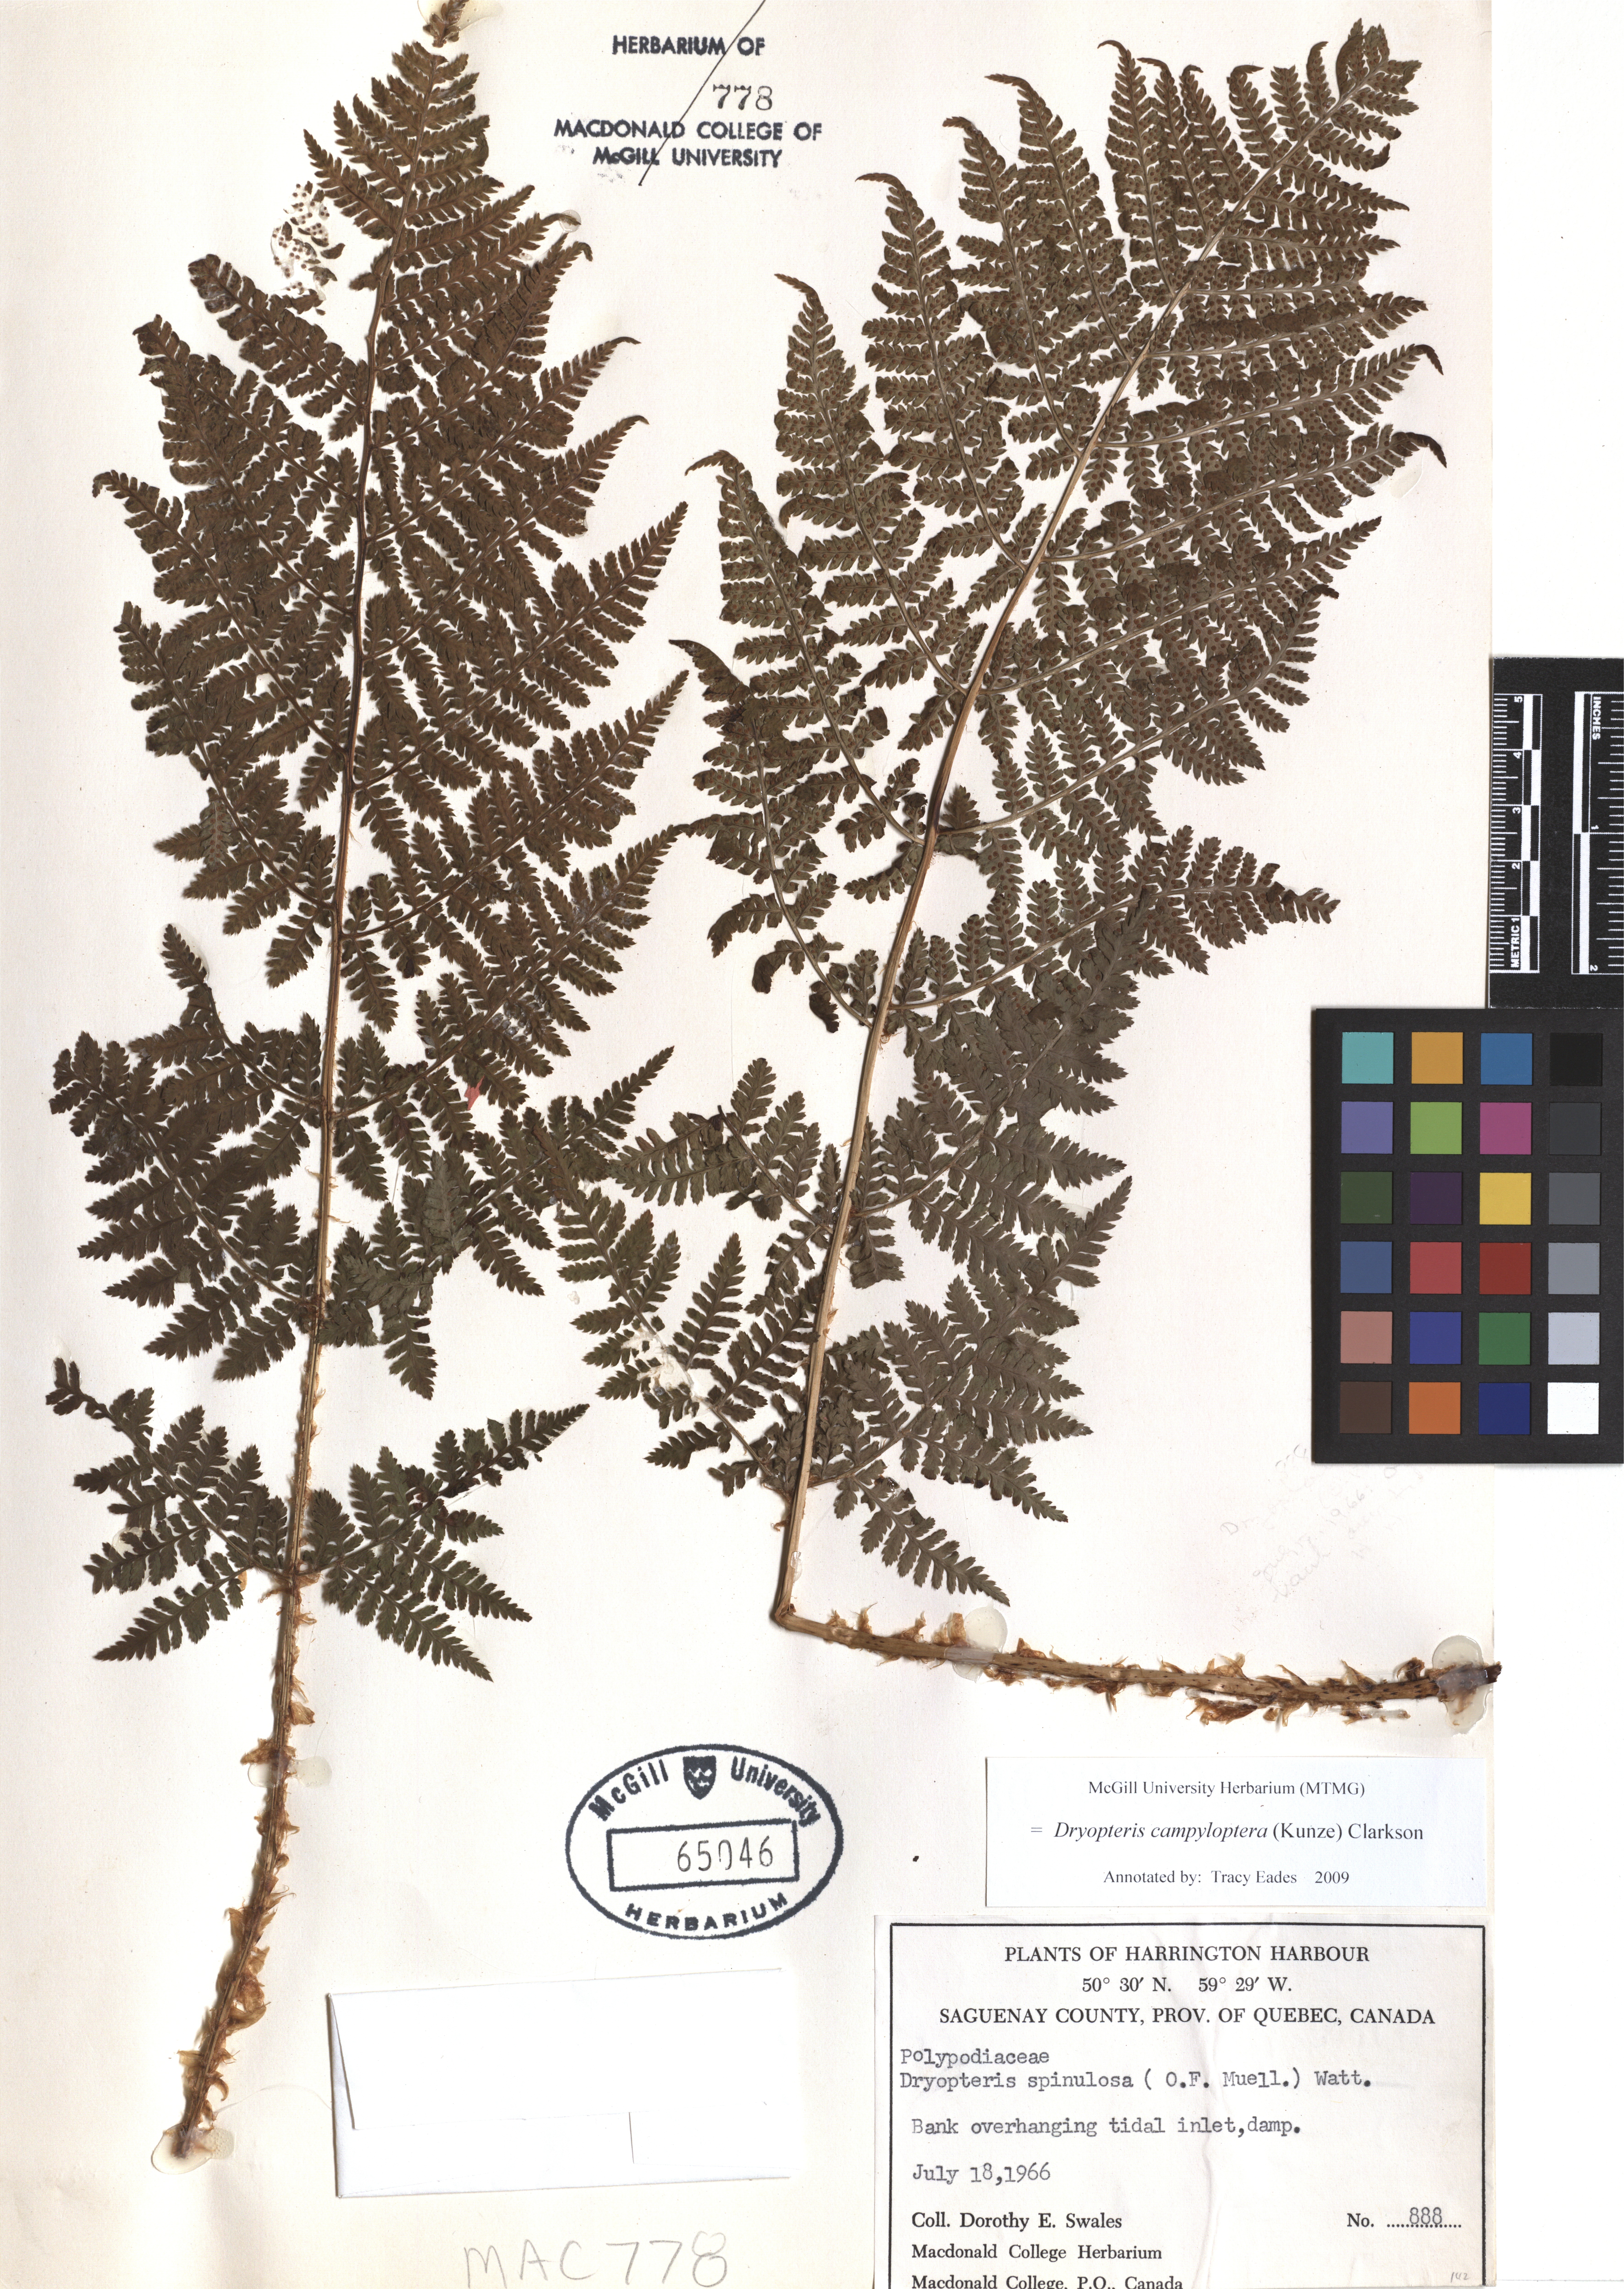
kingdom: Plantae
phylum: Tracheophyta
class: Polypodiopsida
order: Polypodiales
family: Dryopteridaceae
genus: Dryopteris
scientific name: Dryopteris campyloptera
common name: Mountain wood fern
